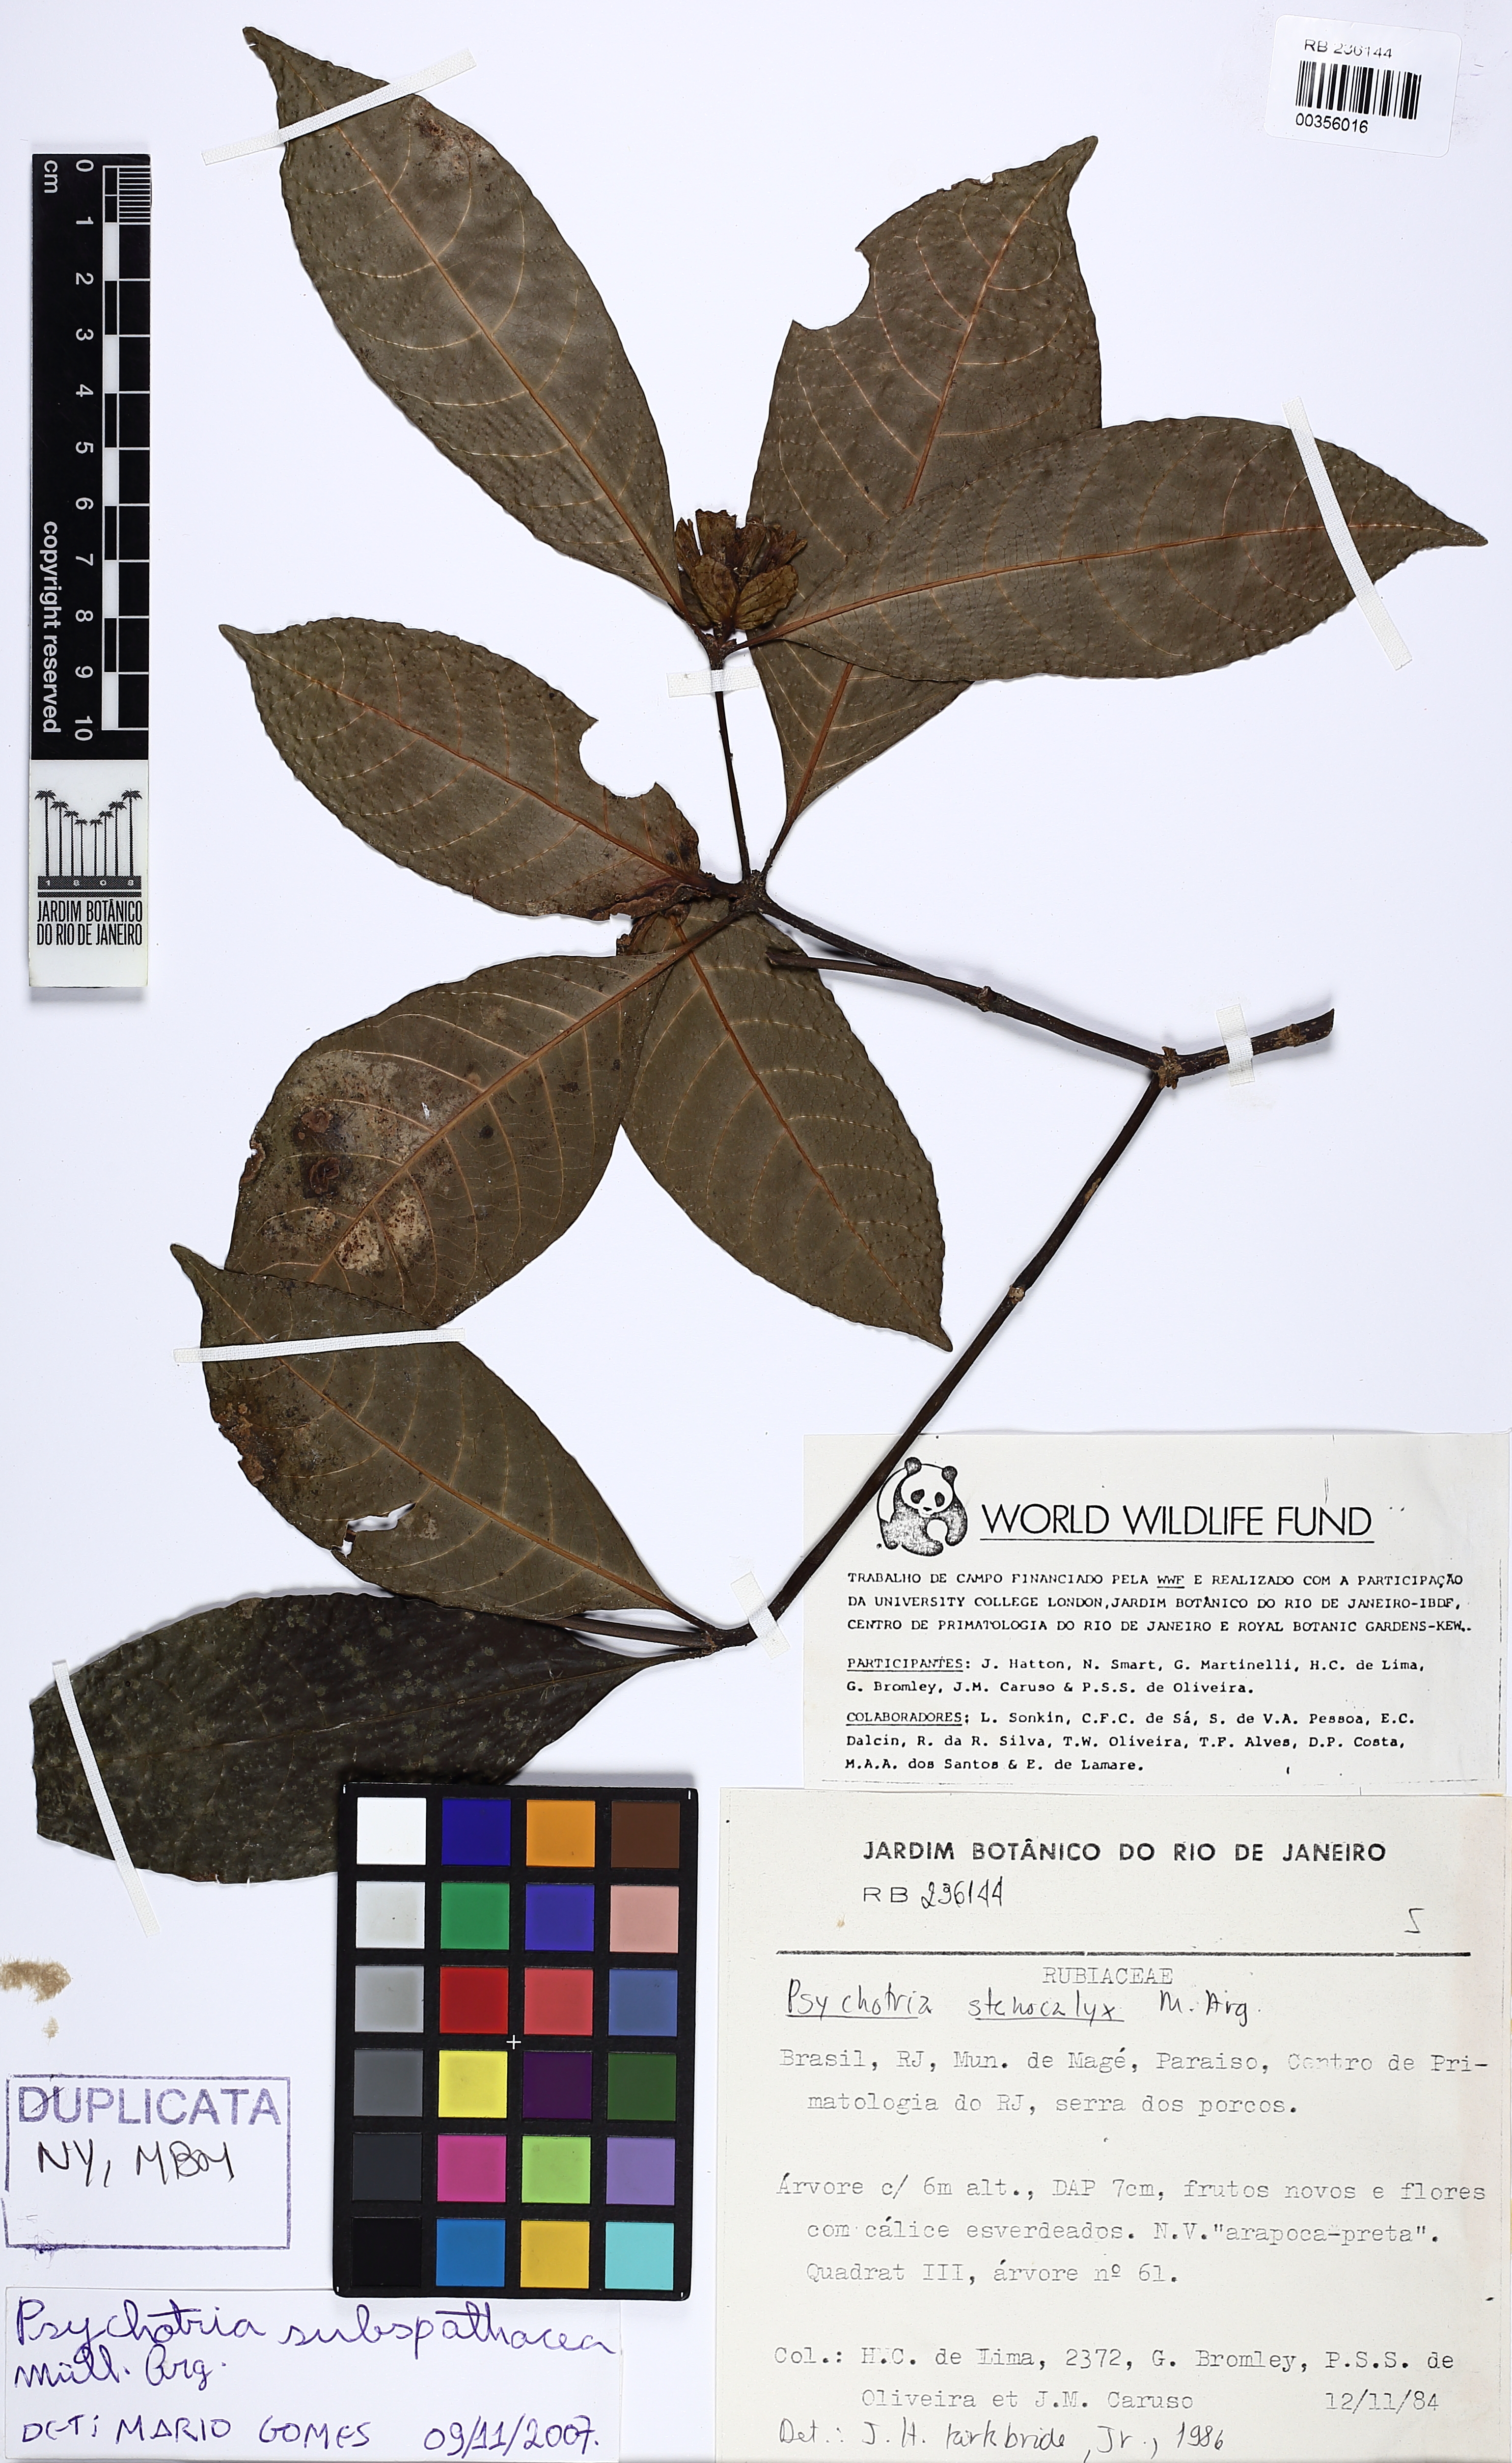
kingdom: Plantae
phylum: Tracheophyta
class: Magnoliopsida
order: Gentianales
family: Rubiaceae
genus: Psychotria
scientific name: Psychotria subspathacea
